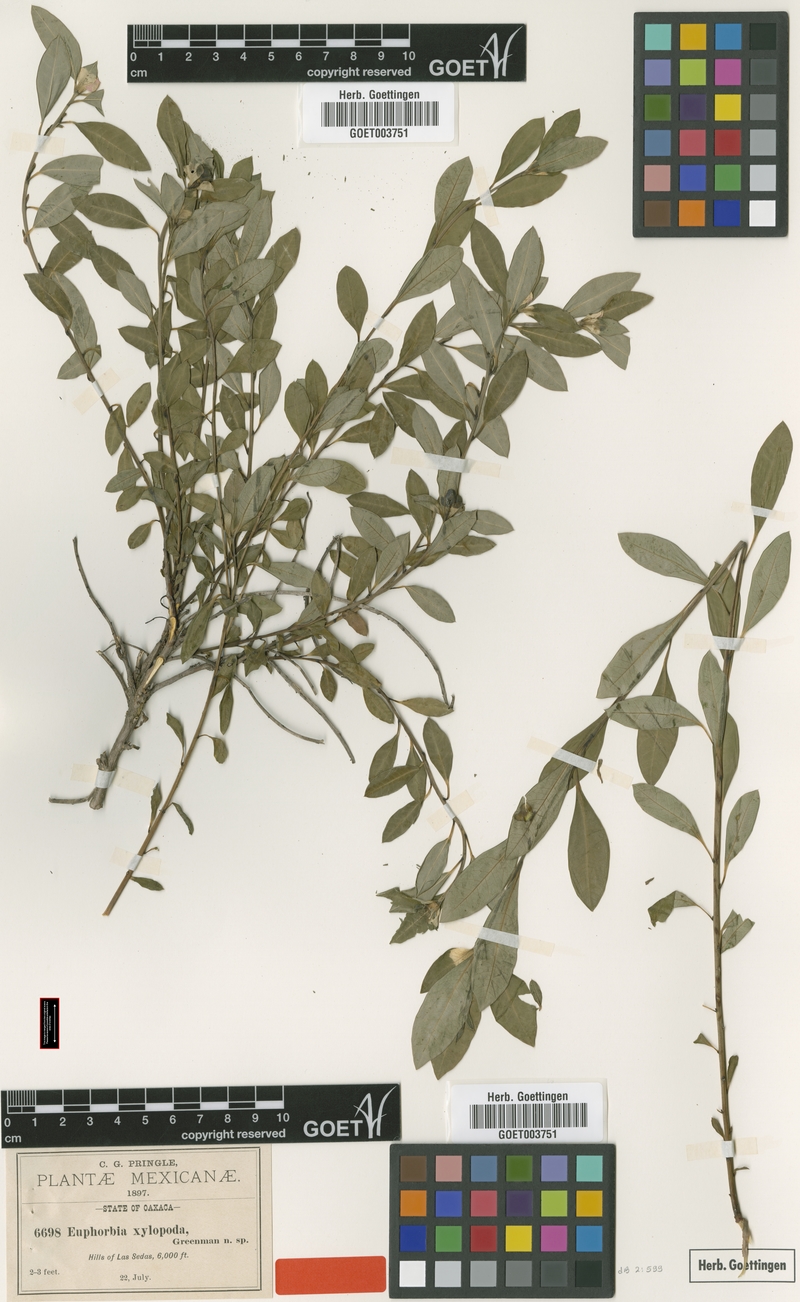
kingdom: Plantae
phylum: Tracheophyta
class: Magnoliopsida
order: Malpighiales
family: Euphorbiaceae
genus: Euphorbia
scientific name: Euphorbia xylopoda
